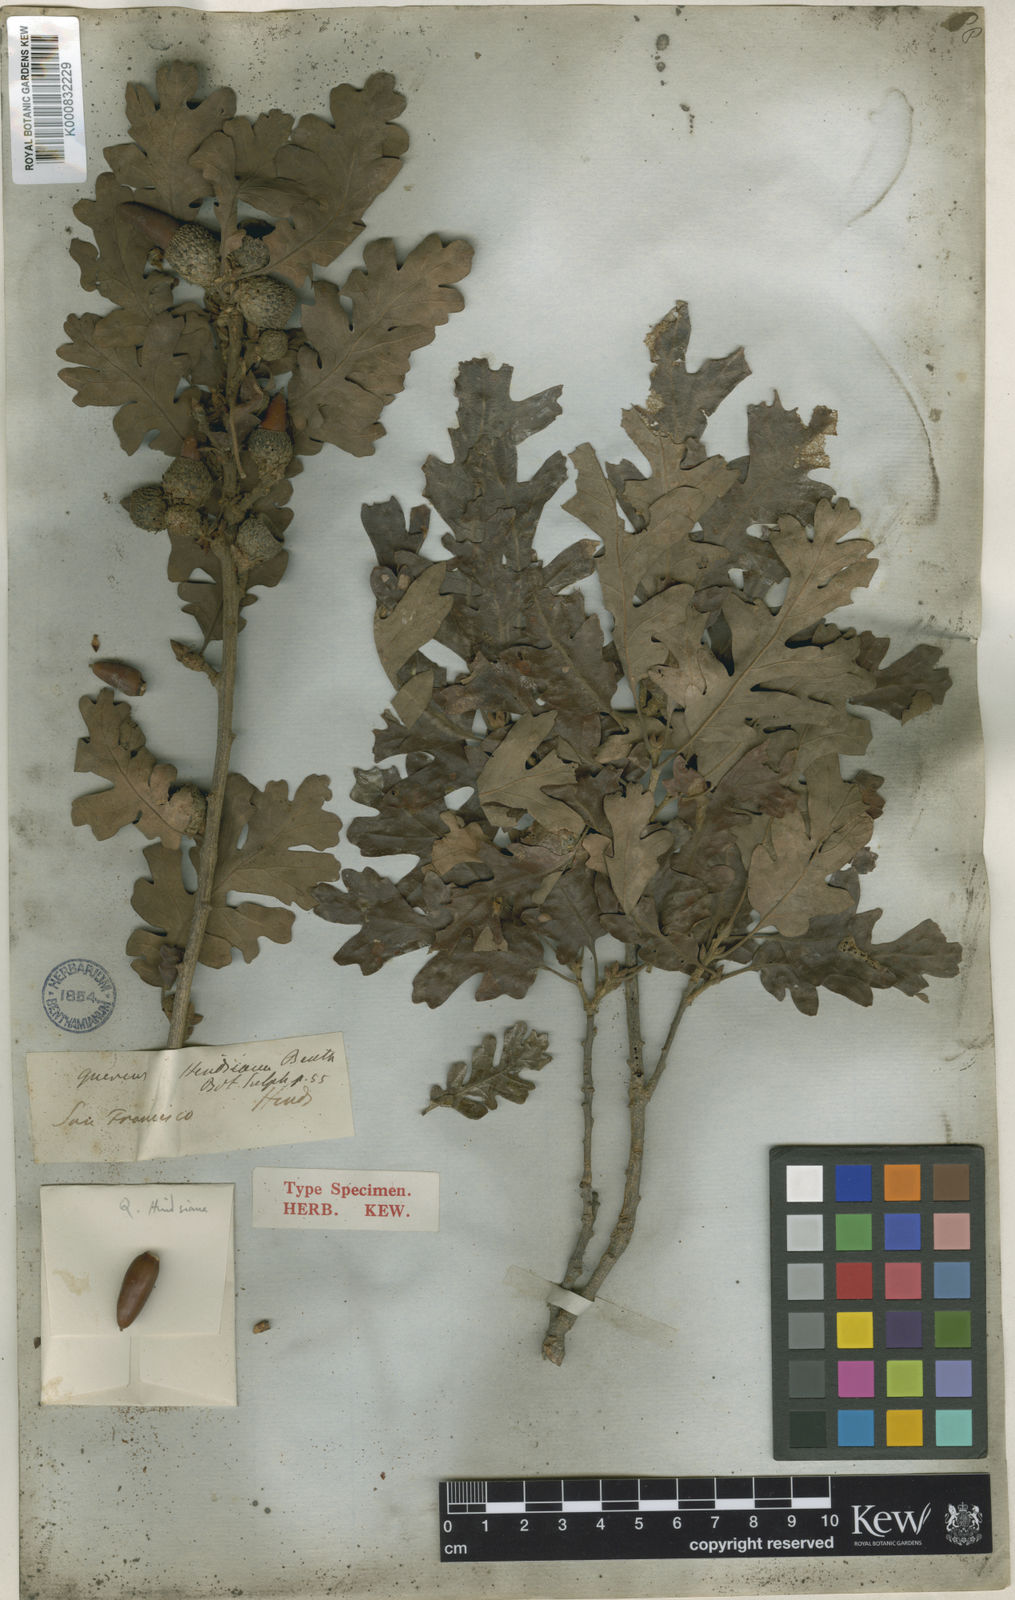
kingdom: Plantae
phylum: Tracheophyta
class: Magnoliopsida
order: Fagales
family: Fagaceae
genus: Quercus
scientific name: Quercus
